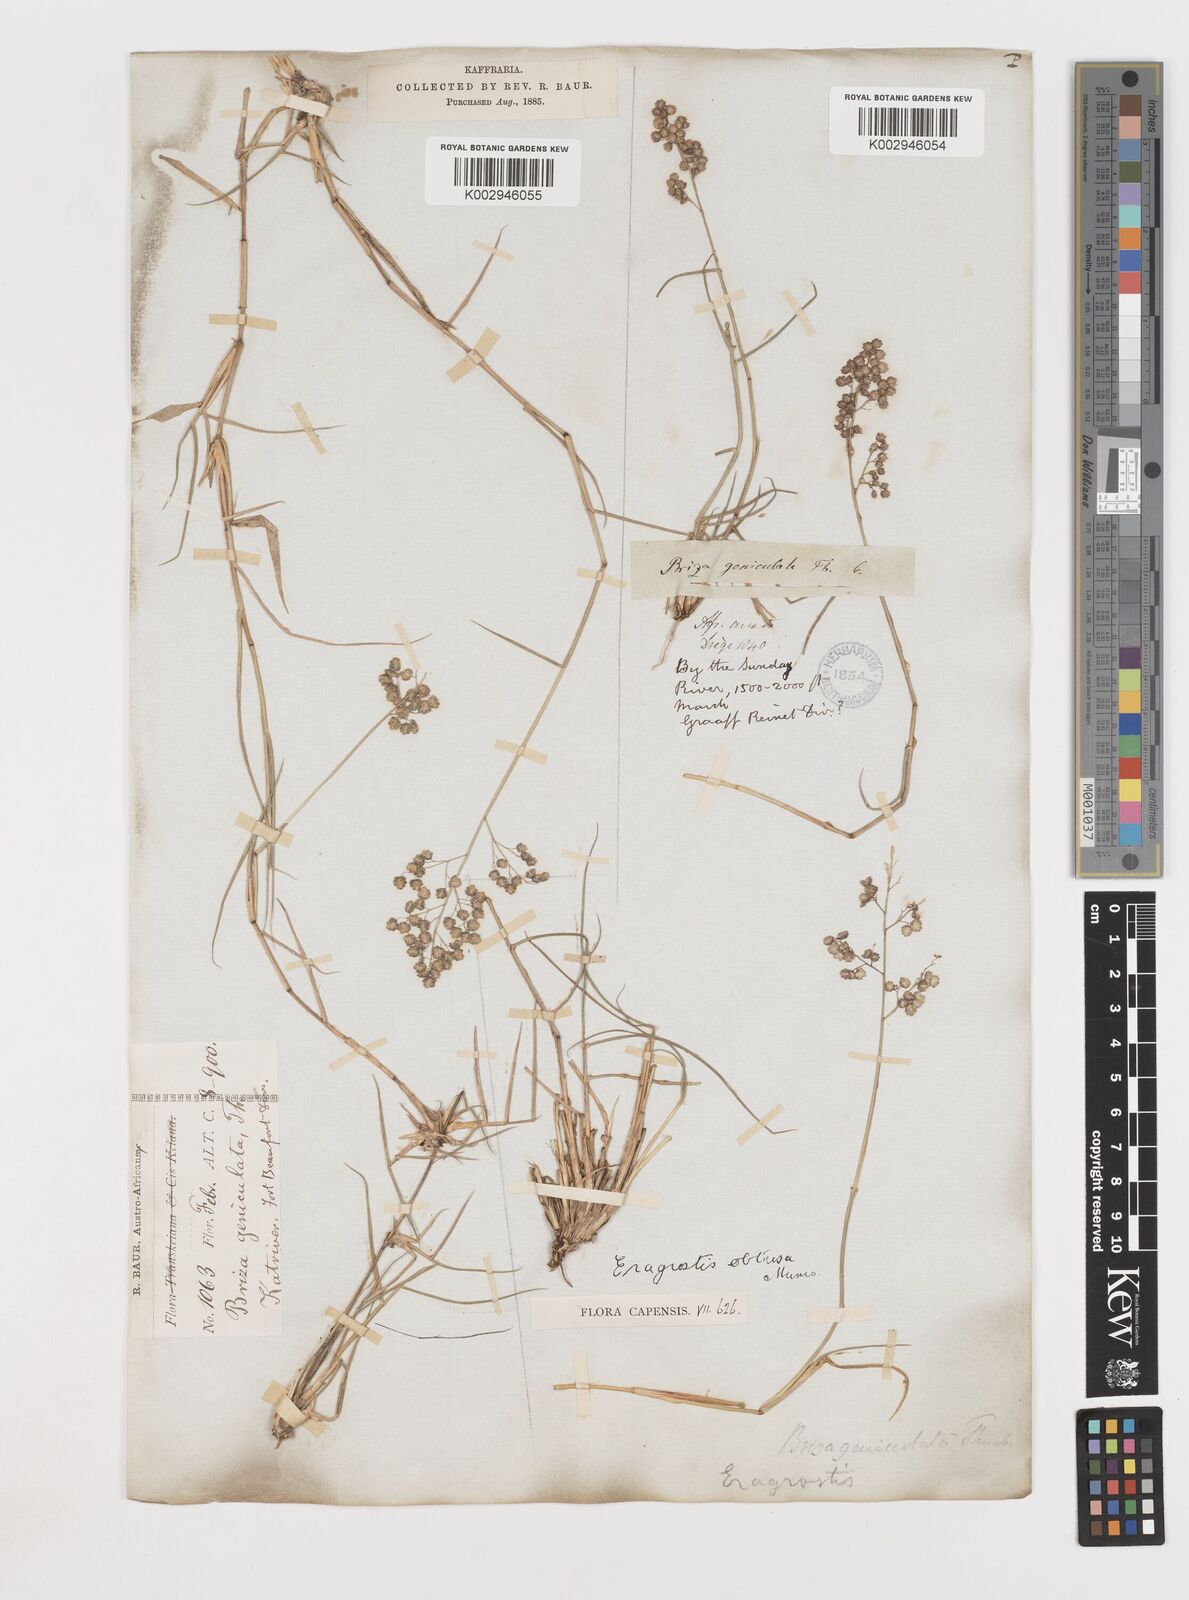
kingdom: Plantae
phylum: Tracheophyta
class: Liliopsida
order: Poales
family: Poaceae
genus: Eragrostis
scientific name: Eragrostis obtusa
